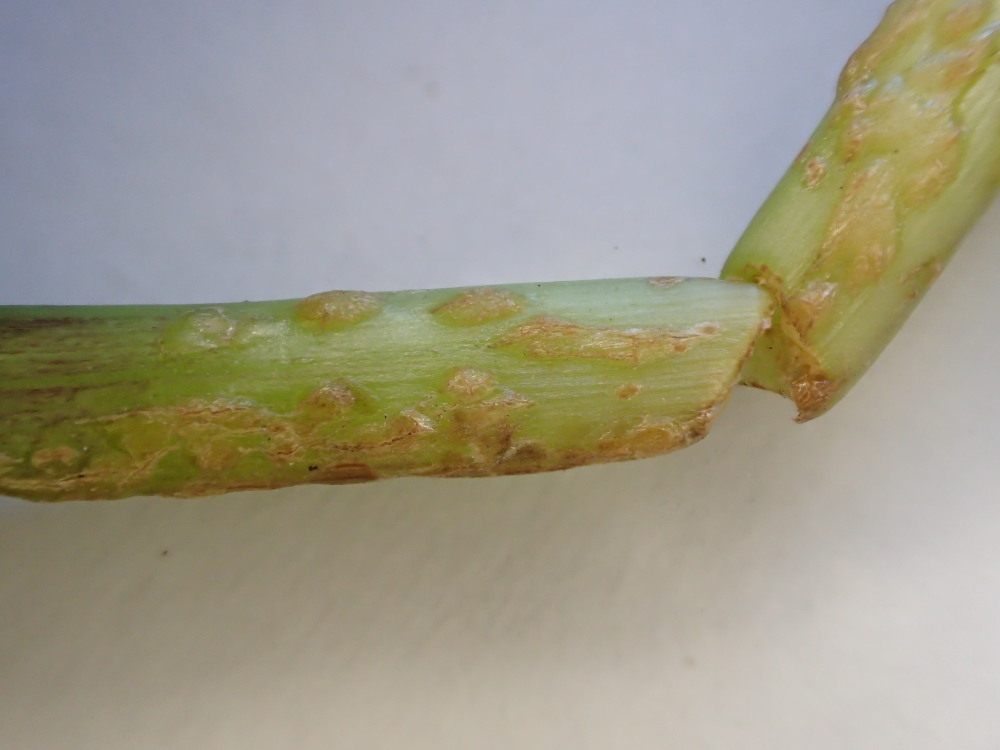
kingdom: Fungi
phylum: Ascomycota
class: Taphrinomycetes
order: Taphrinales
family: Taphrinaceae
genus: Protomyces
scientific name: Protomyces macrosporus
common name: skvalderkål-vablesæk
